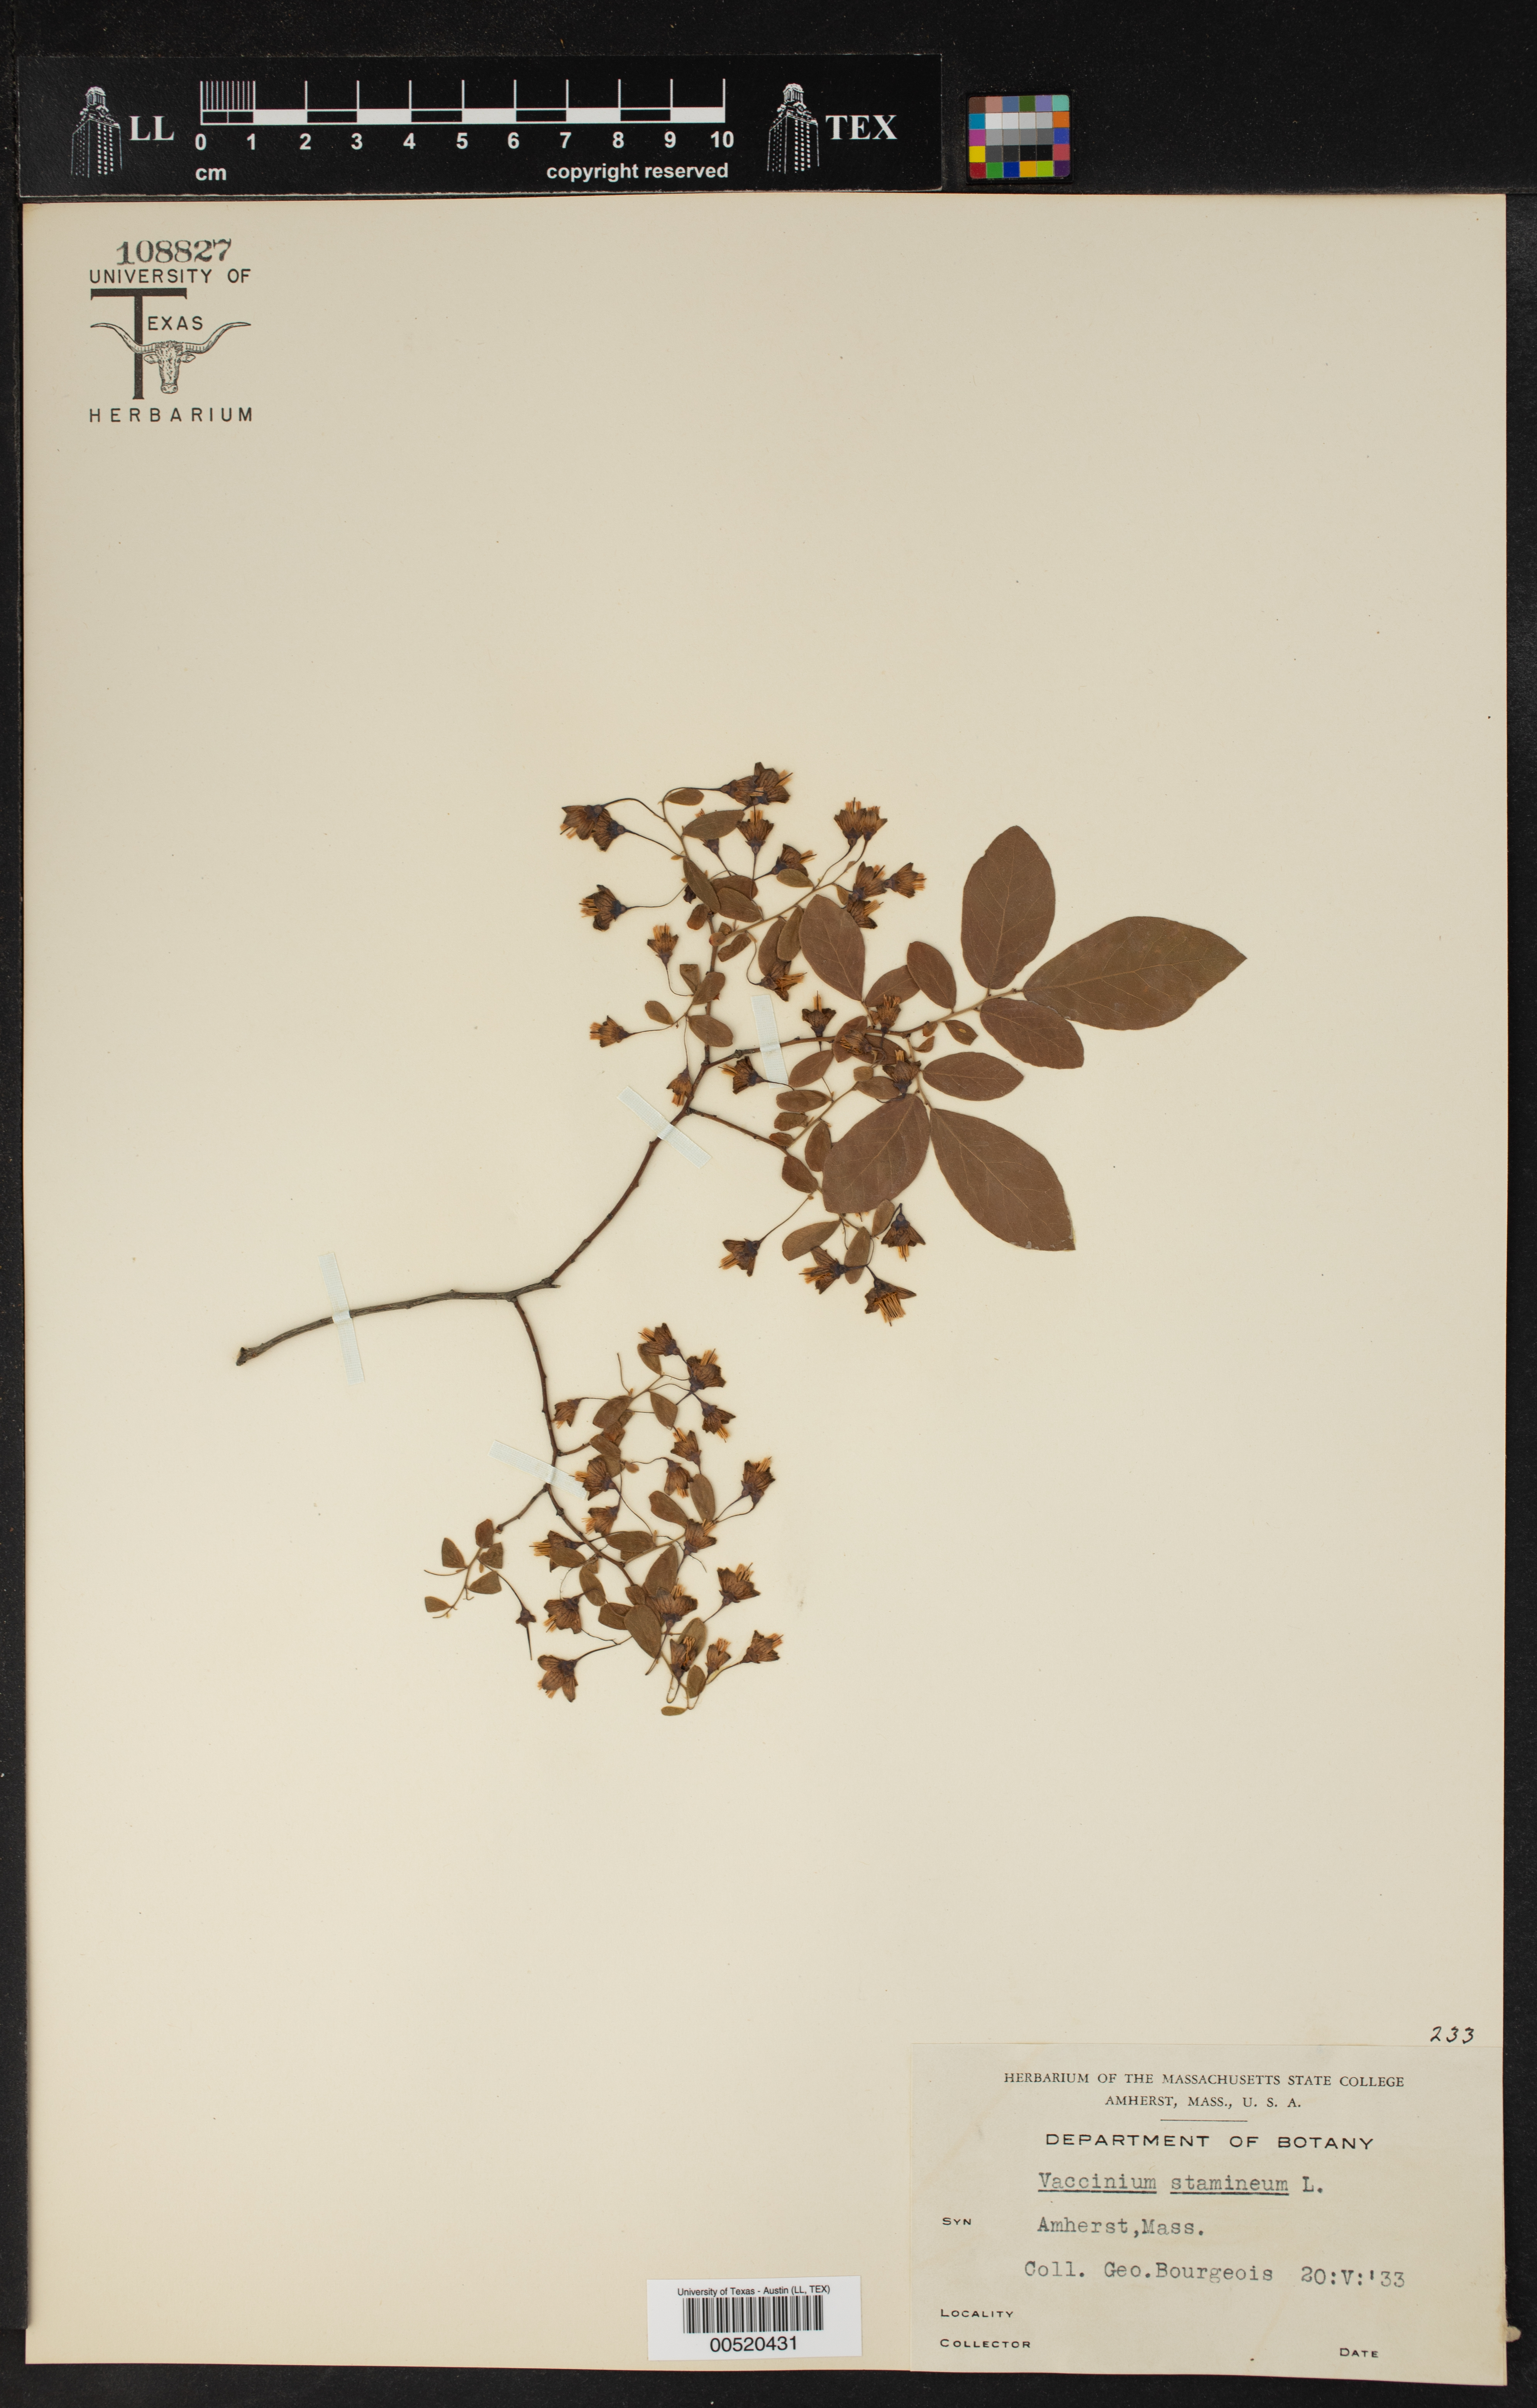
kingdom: Plantae
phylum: Tracheophyta
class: Magnoliopsida
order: Ericales
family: Ericaceae
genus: Vaccinium
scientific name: Vaccinium stamineum
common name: Deerberry
